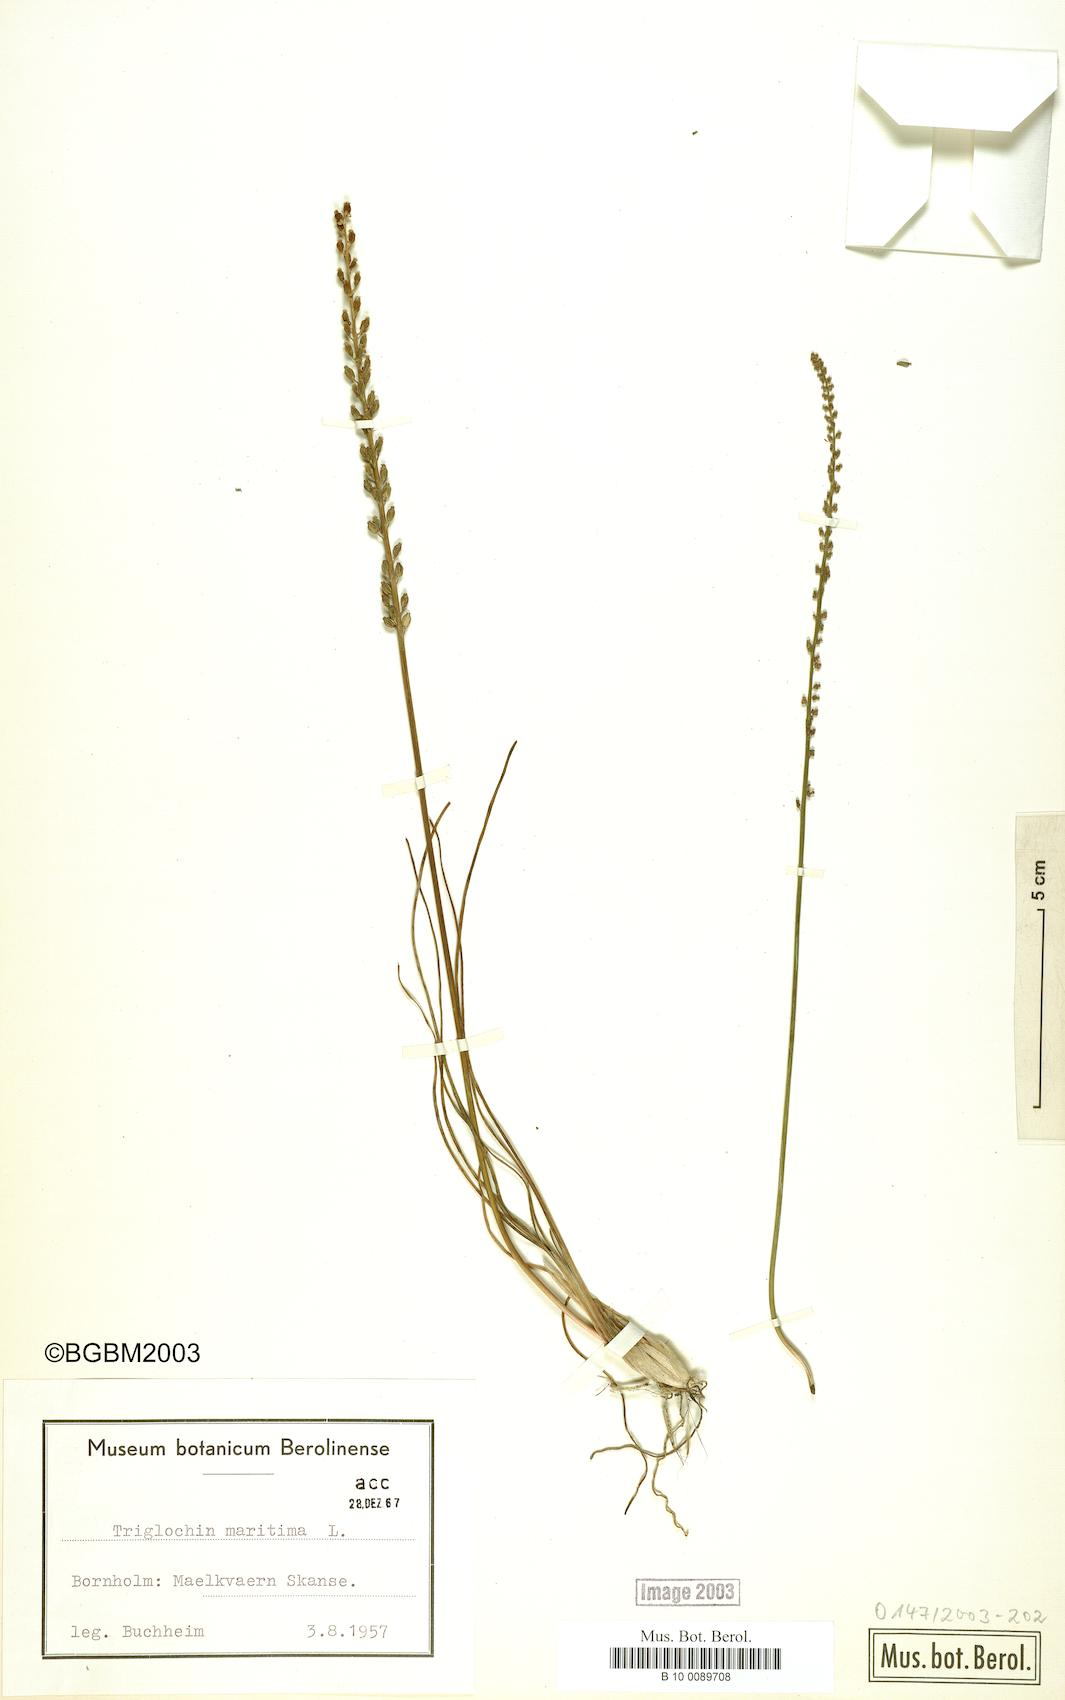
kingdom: Plantae
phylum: Tracheophyta
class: Liliopsida
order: Alismatales
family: Juncaginaceae
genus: Triglochin
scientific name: Triglochin maritima
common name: Sea arrowgrass
